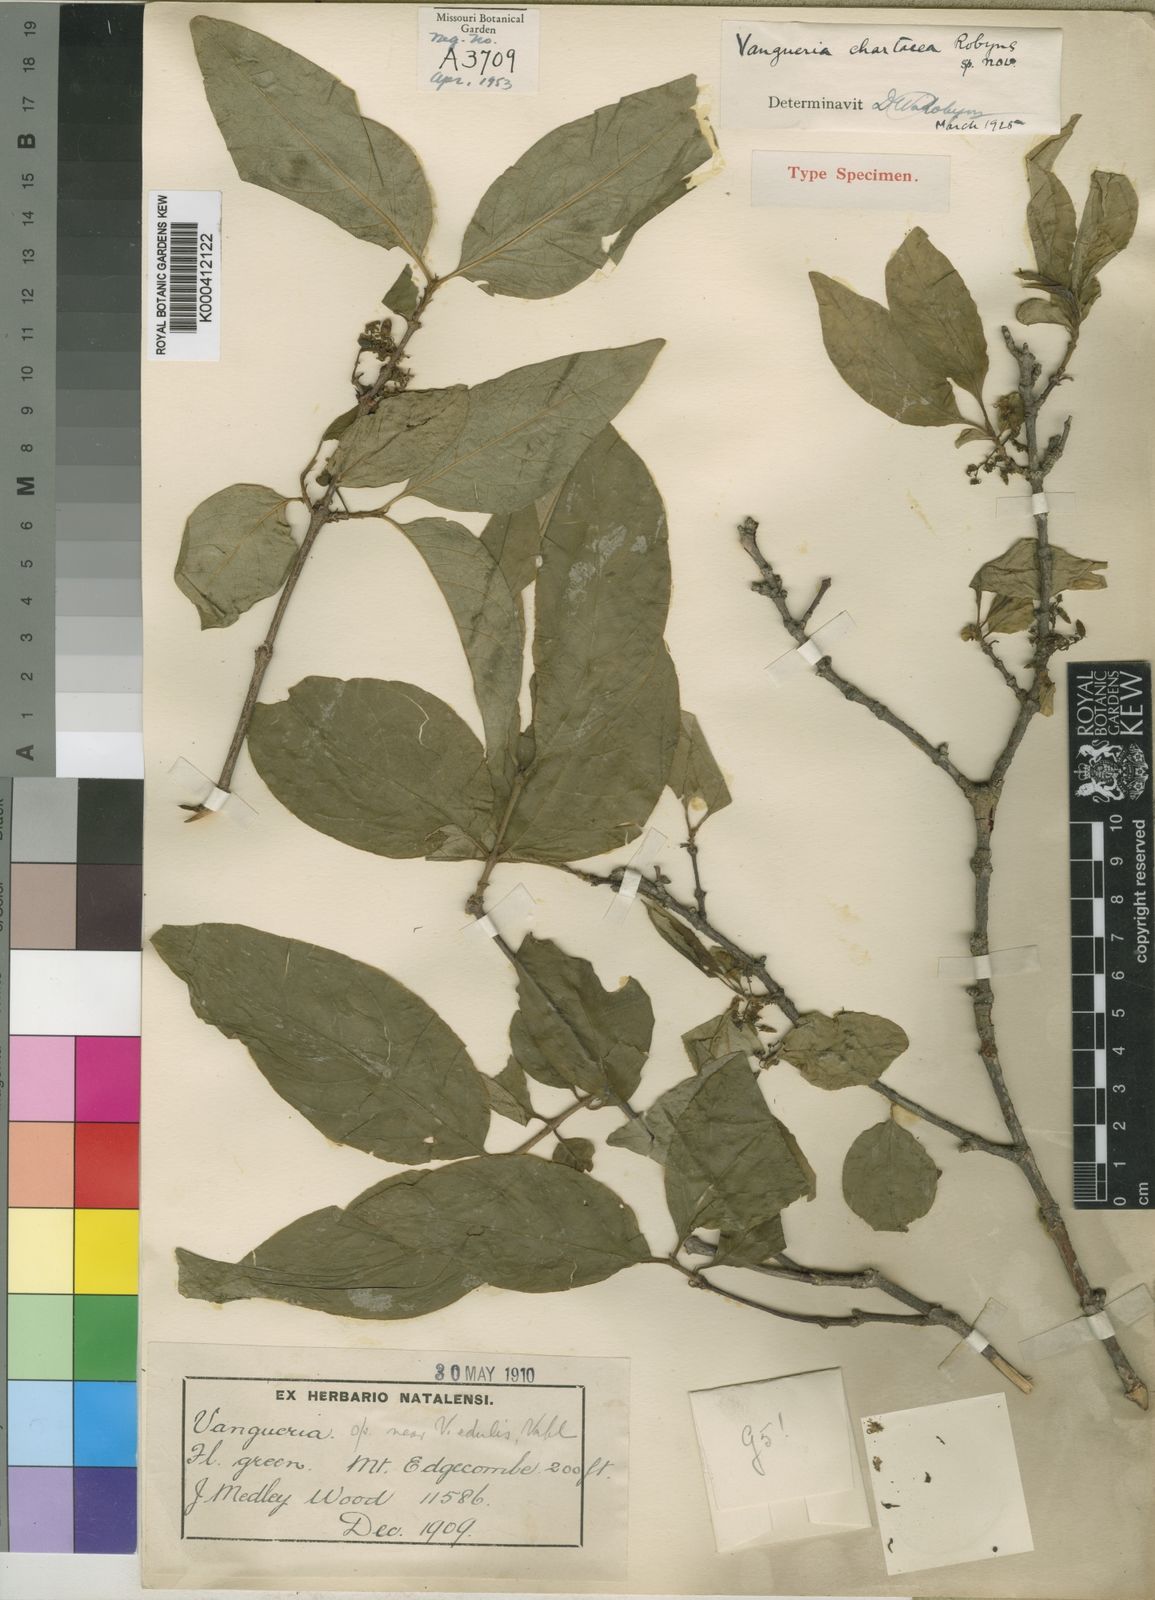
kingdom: Plantae
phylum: Tracheophyta
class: Magnoliopsida
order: Gentianales
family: Rubiaceae
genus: Vangueria
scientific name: Vangueria randii
